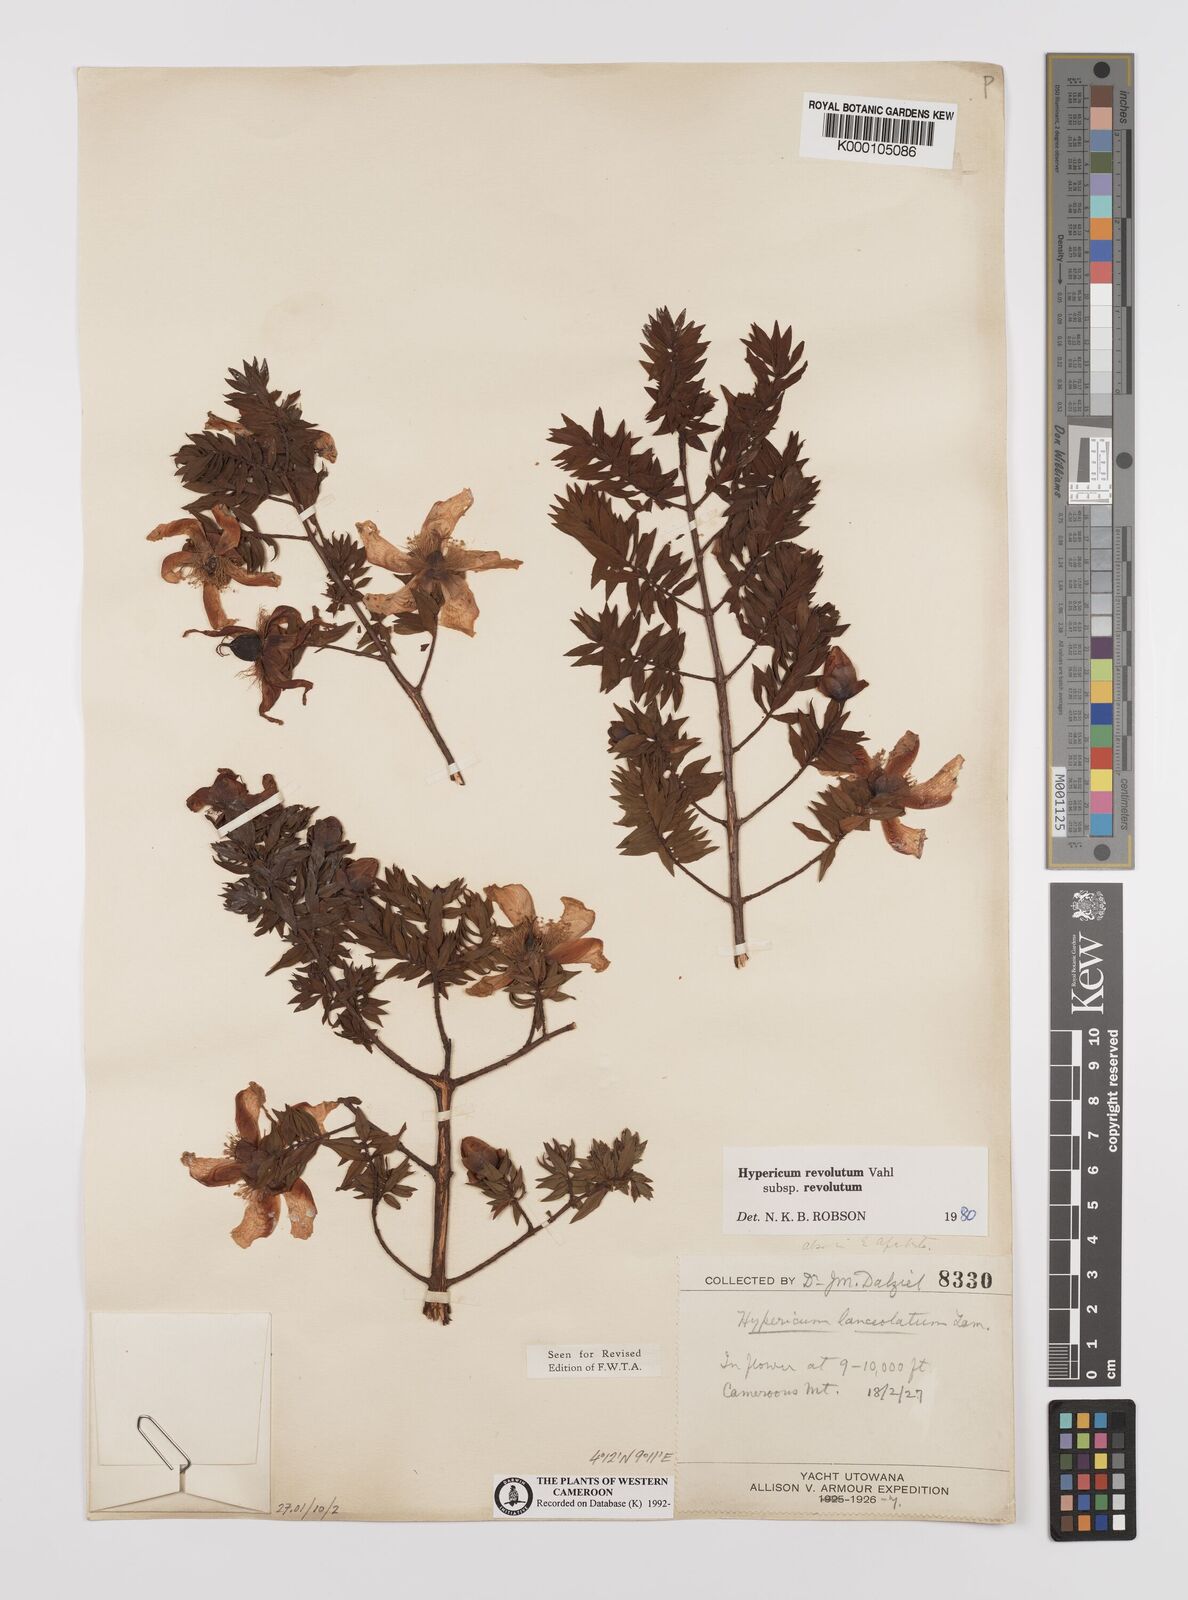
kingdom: Plantae
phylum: Tracheophyta
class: Magnoliopsida
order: Malpighiales
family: Hypericaceae
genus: Hypericum
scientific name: Hypericum revolutum
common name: Curry bush
